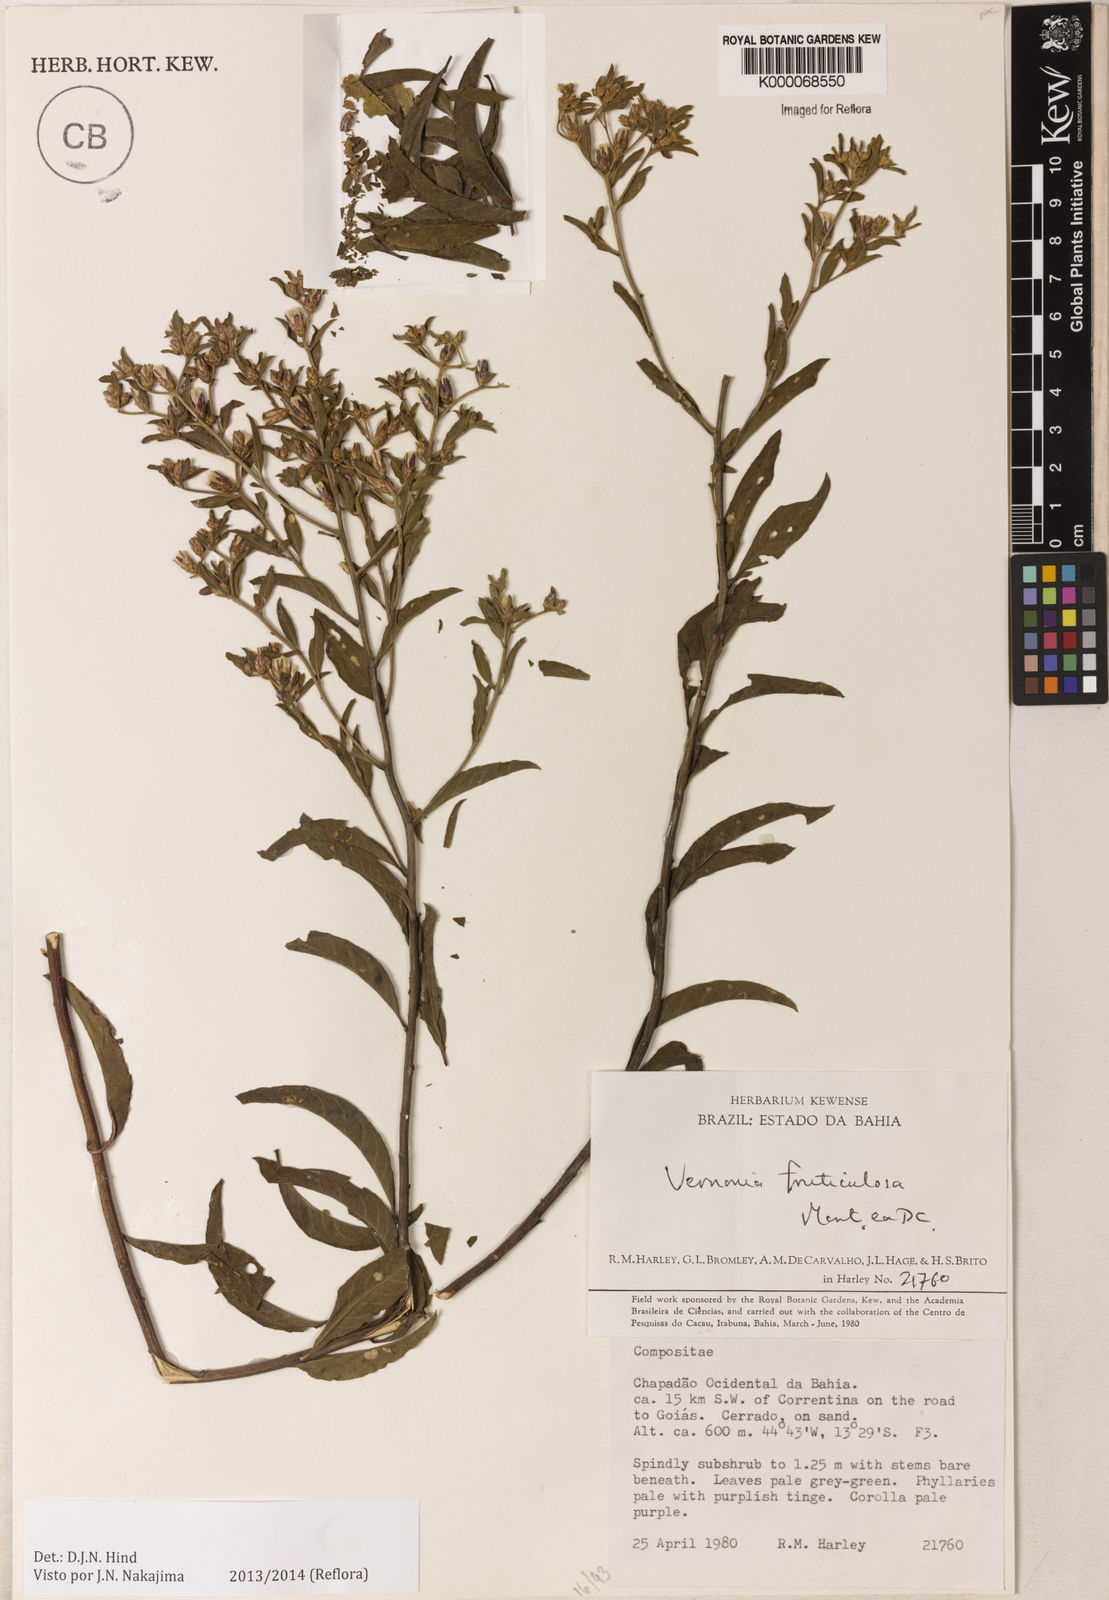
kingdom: Plantae
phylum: Tracheophyta
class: Magnoliopsida
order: Asterales
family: Asteraceae
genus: Lepidaploa
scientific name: Lepidaploa rufogrisea
